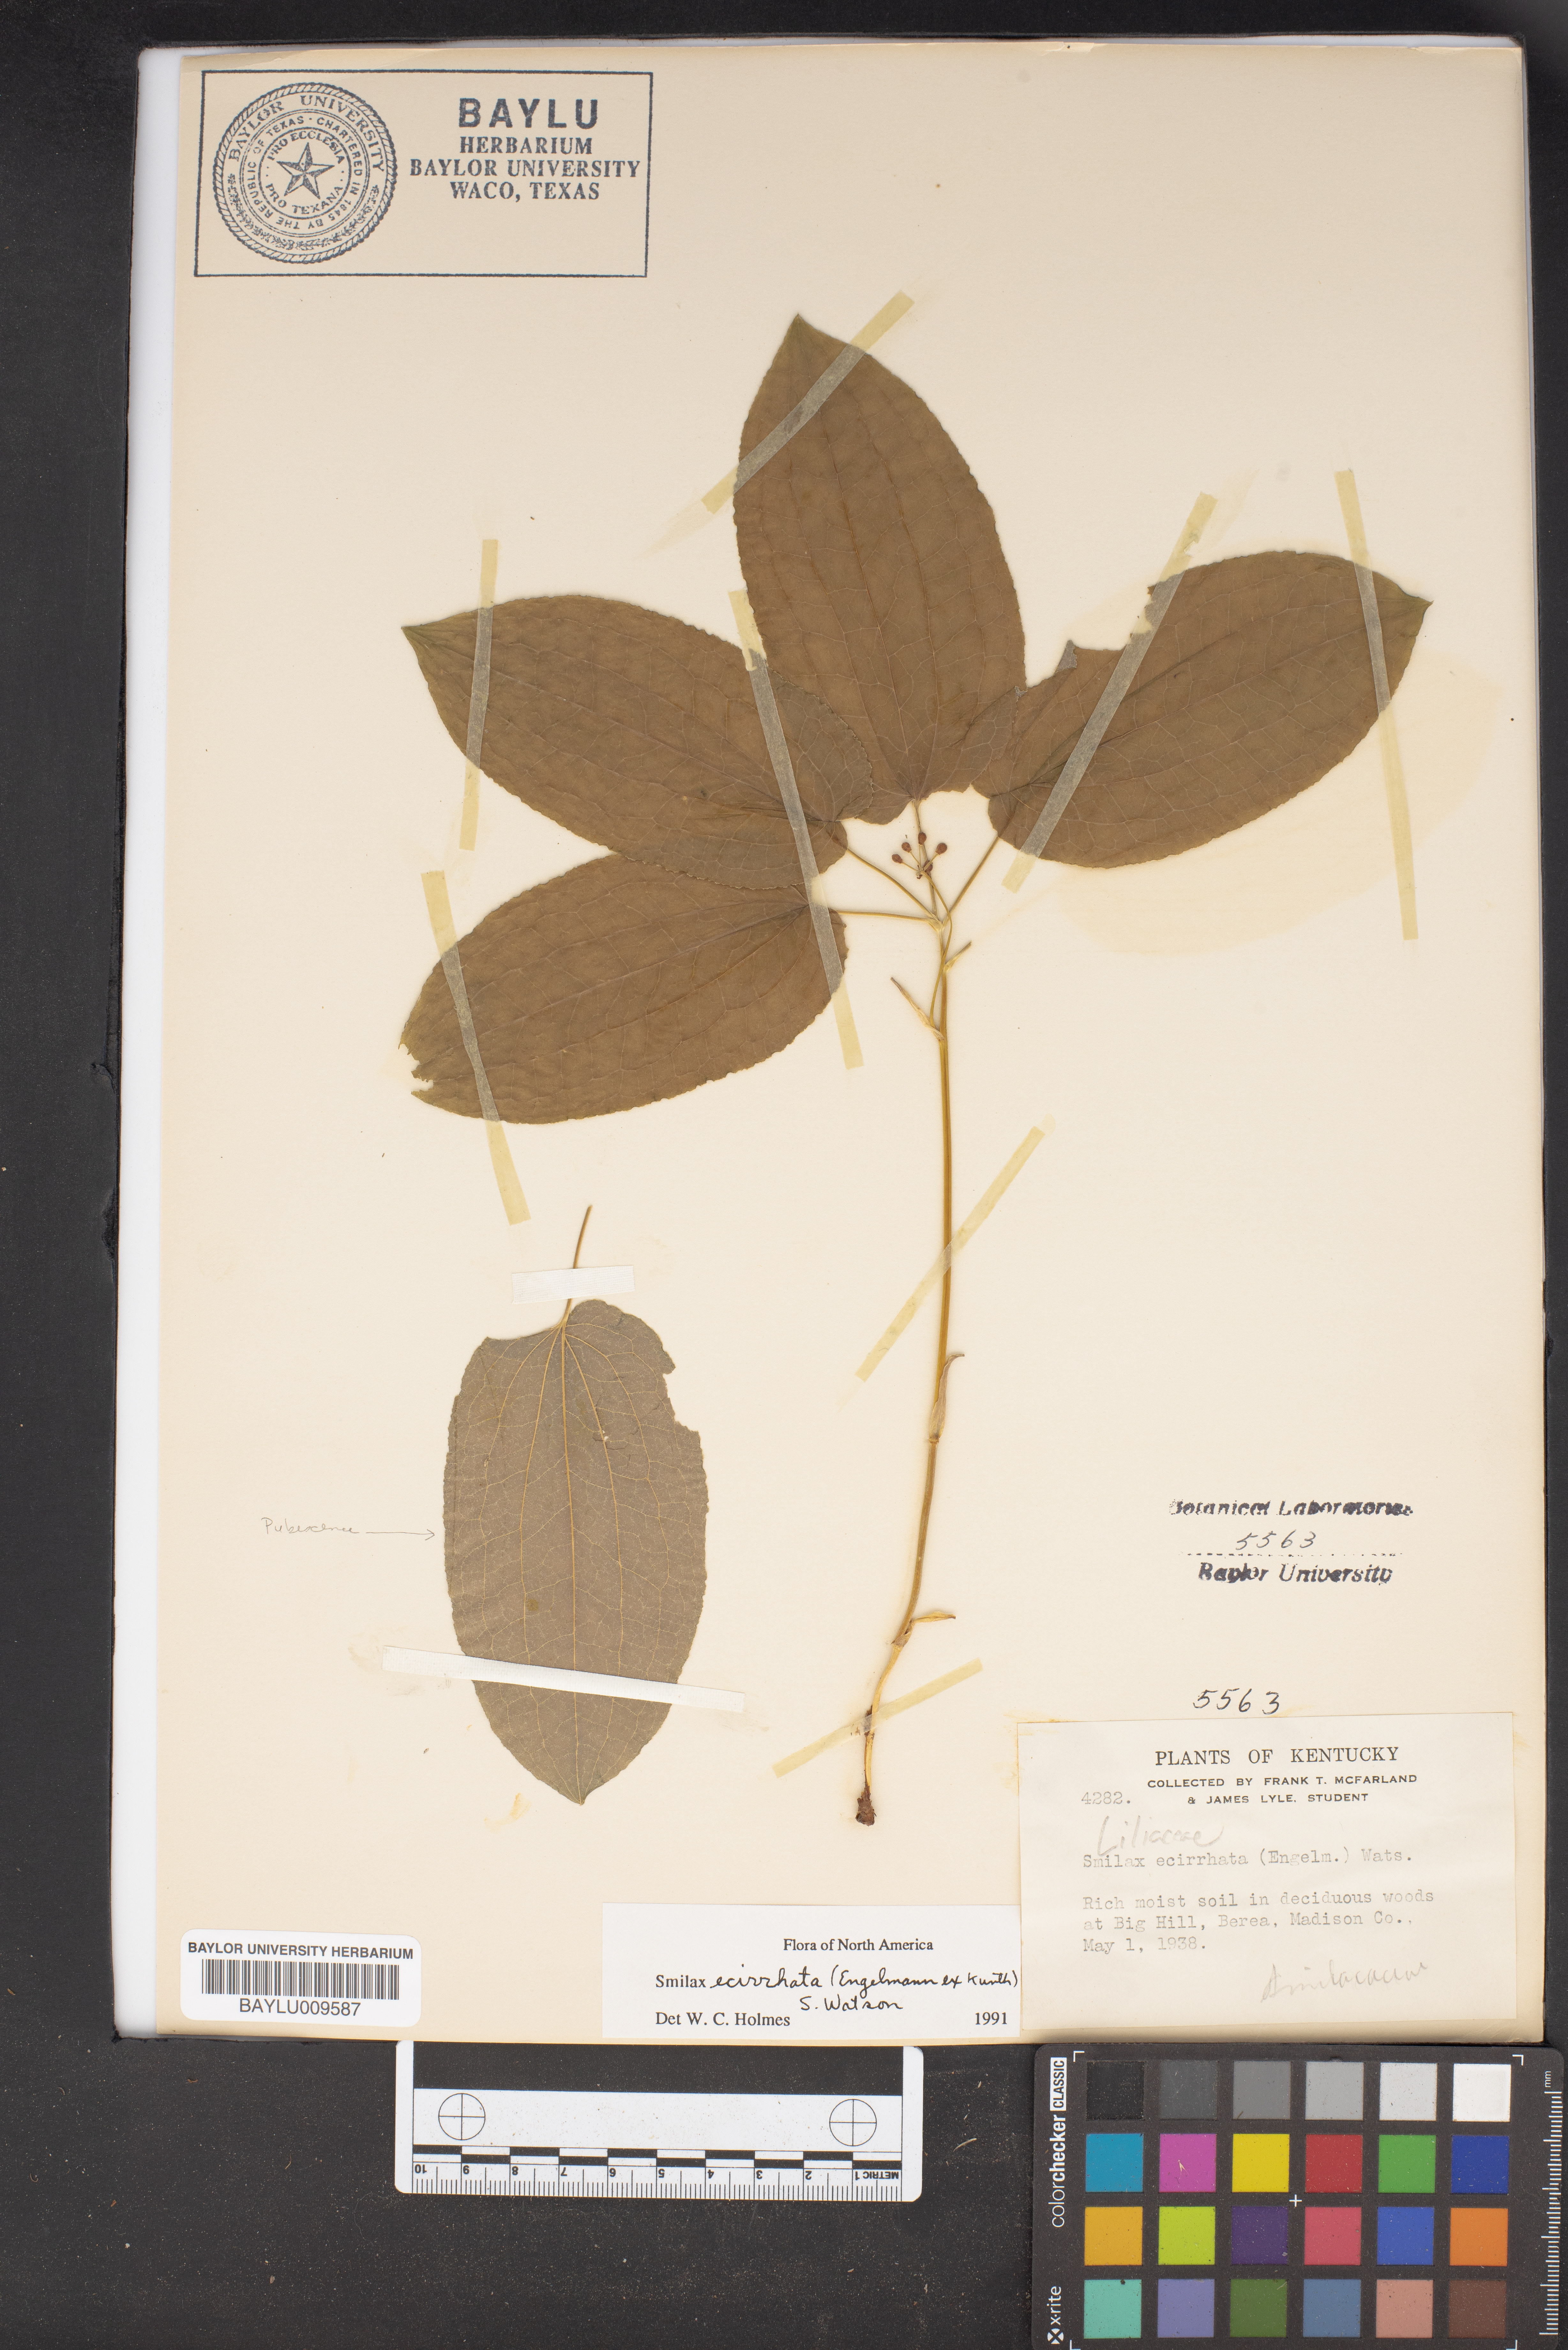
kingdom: Plantae
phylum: Tracheophyta
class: Liliopsida
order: Liliales
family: Smilacaceae
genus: Smilax
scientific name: Smilax ecirrhata
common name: Upright carrionflower
